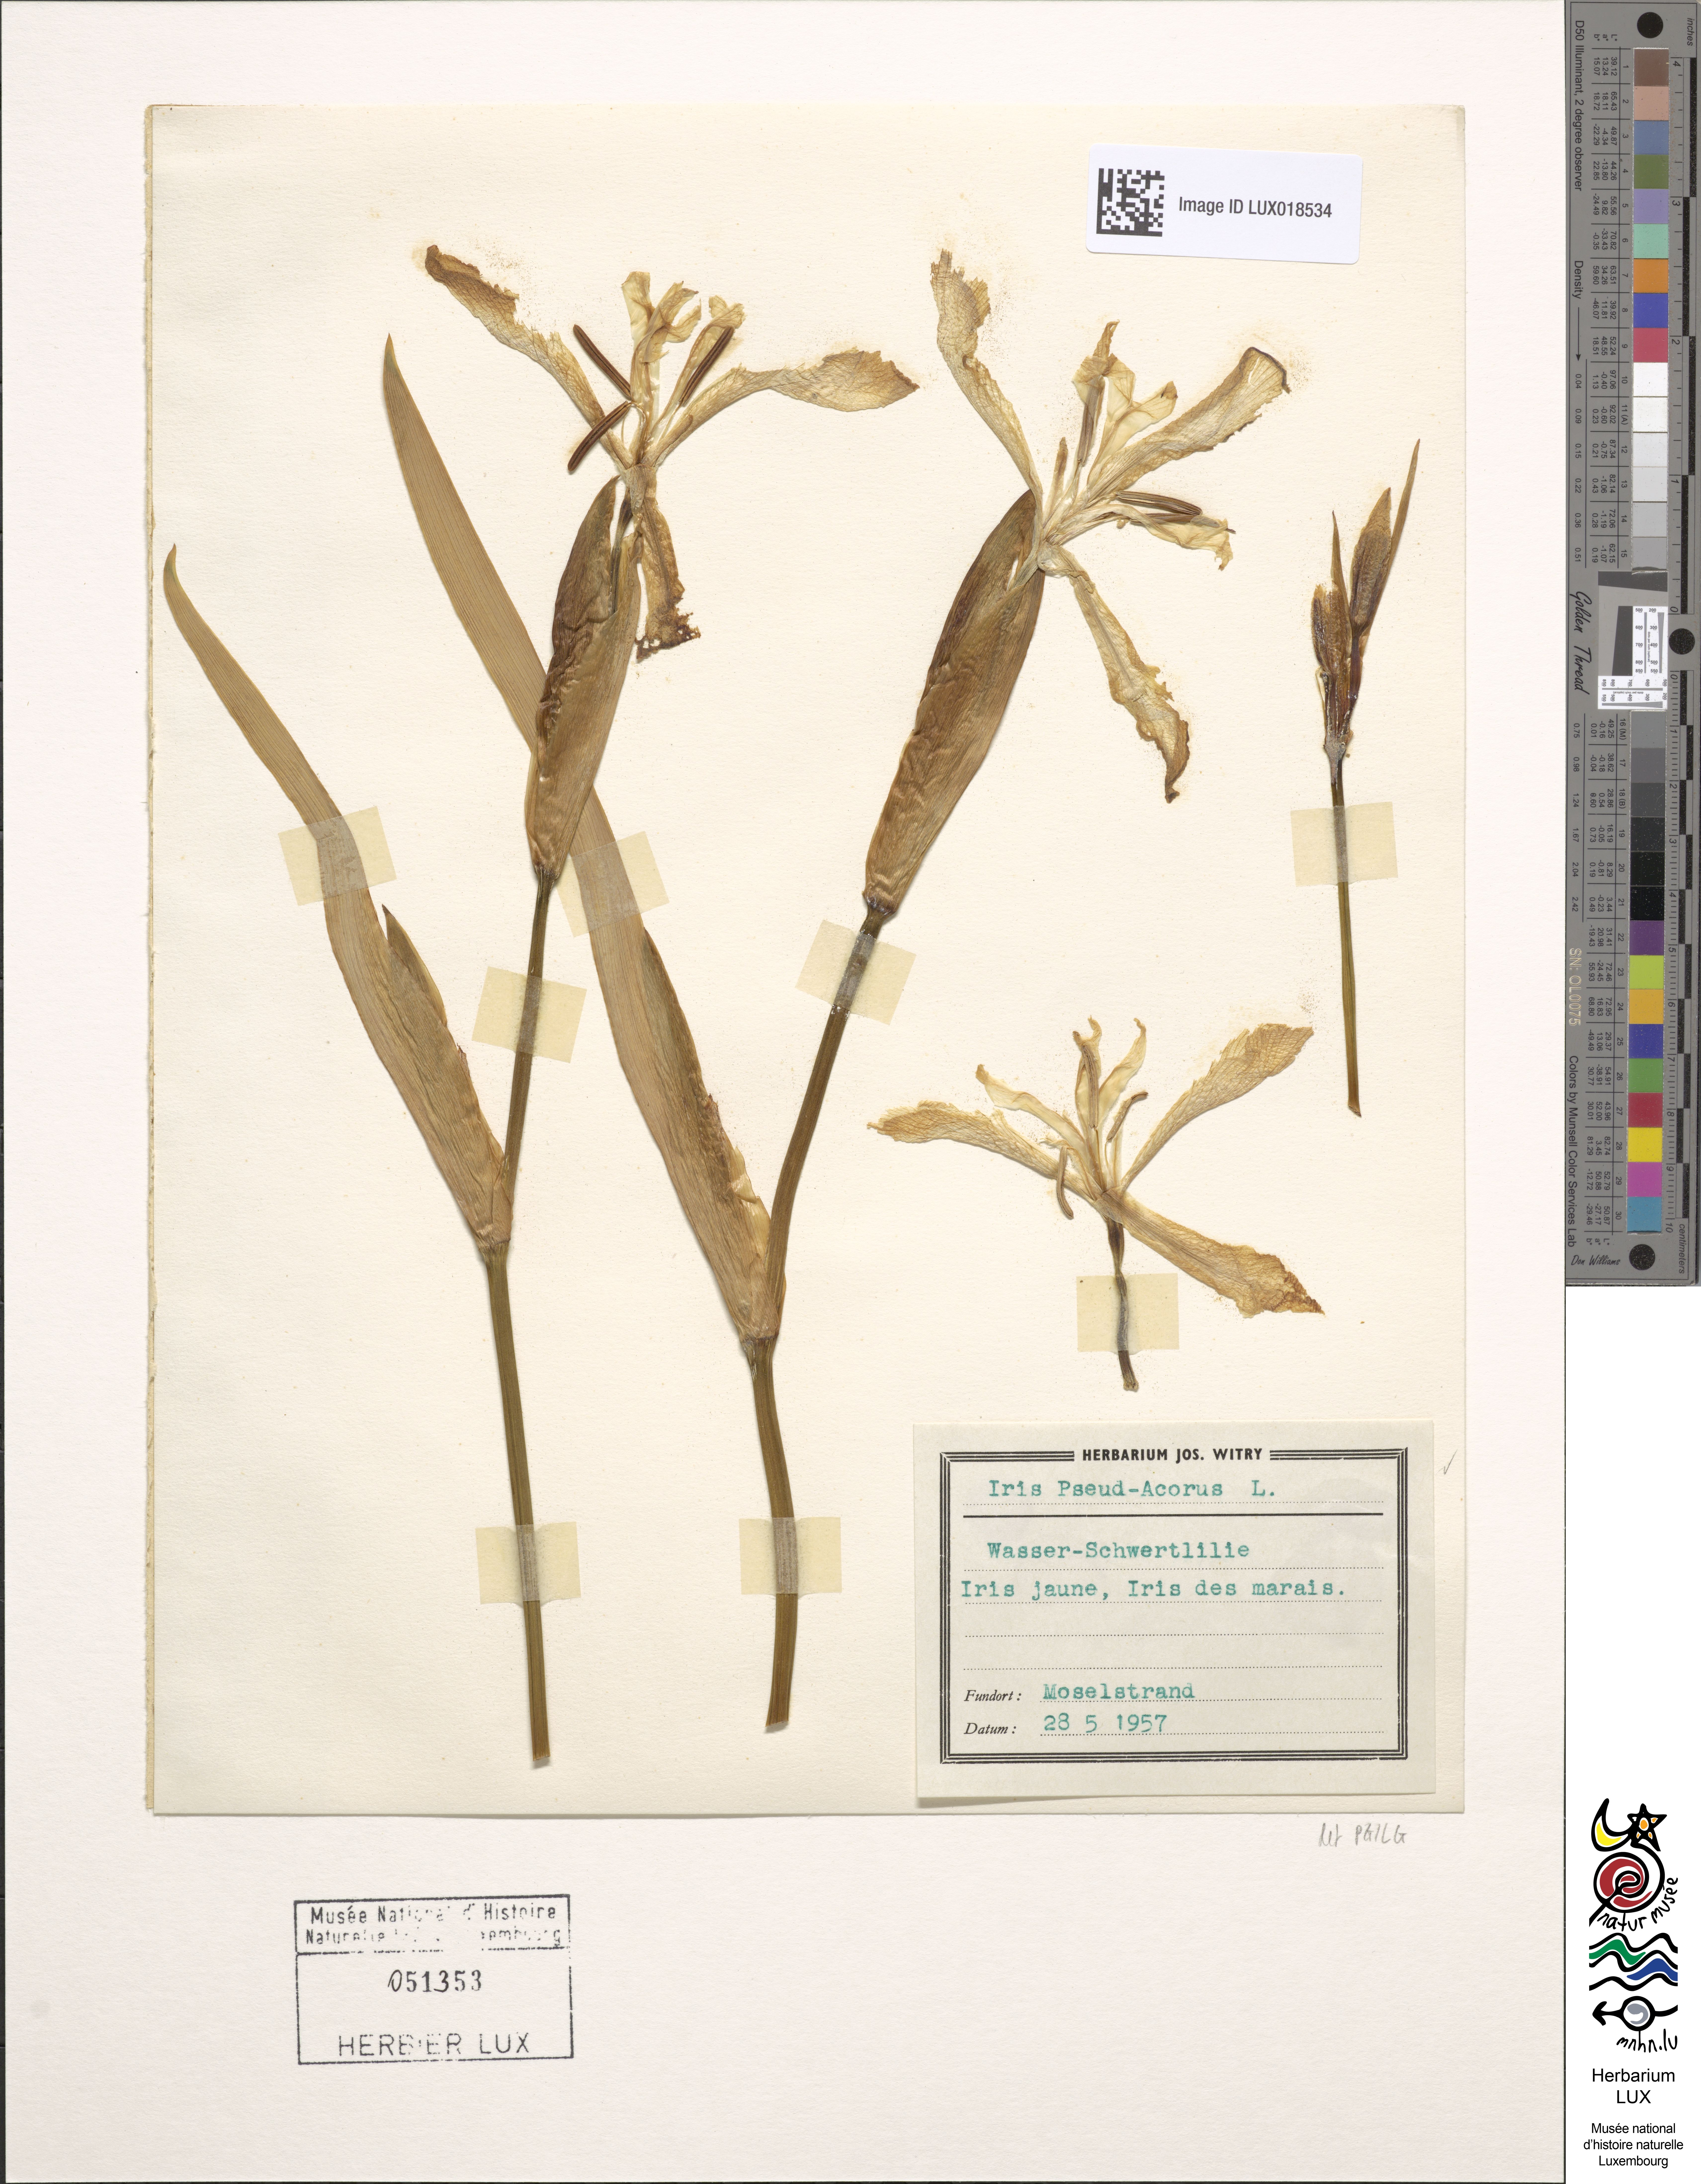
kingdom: Plantae
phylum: Tracheophyta
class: Liliopsida
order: Asparagales
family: Iridaceae
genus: Iris
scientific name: Iris pseudacorus
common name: Yellow flag
